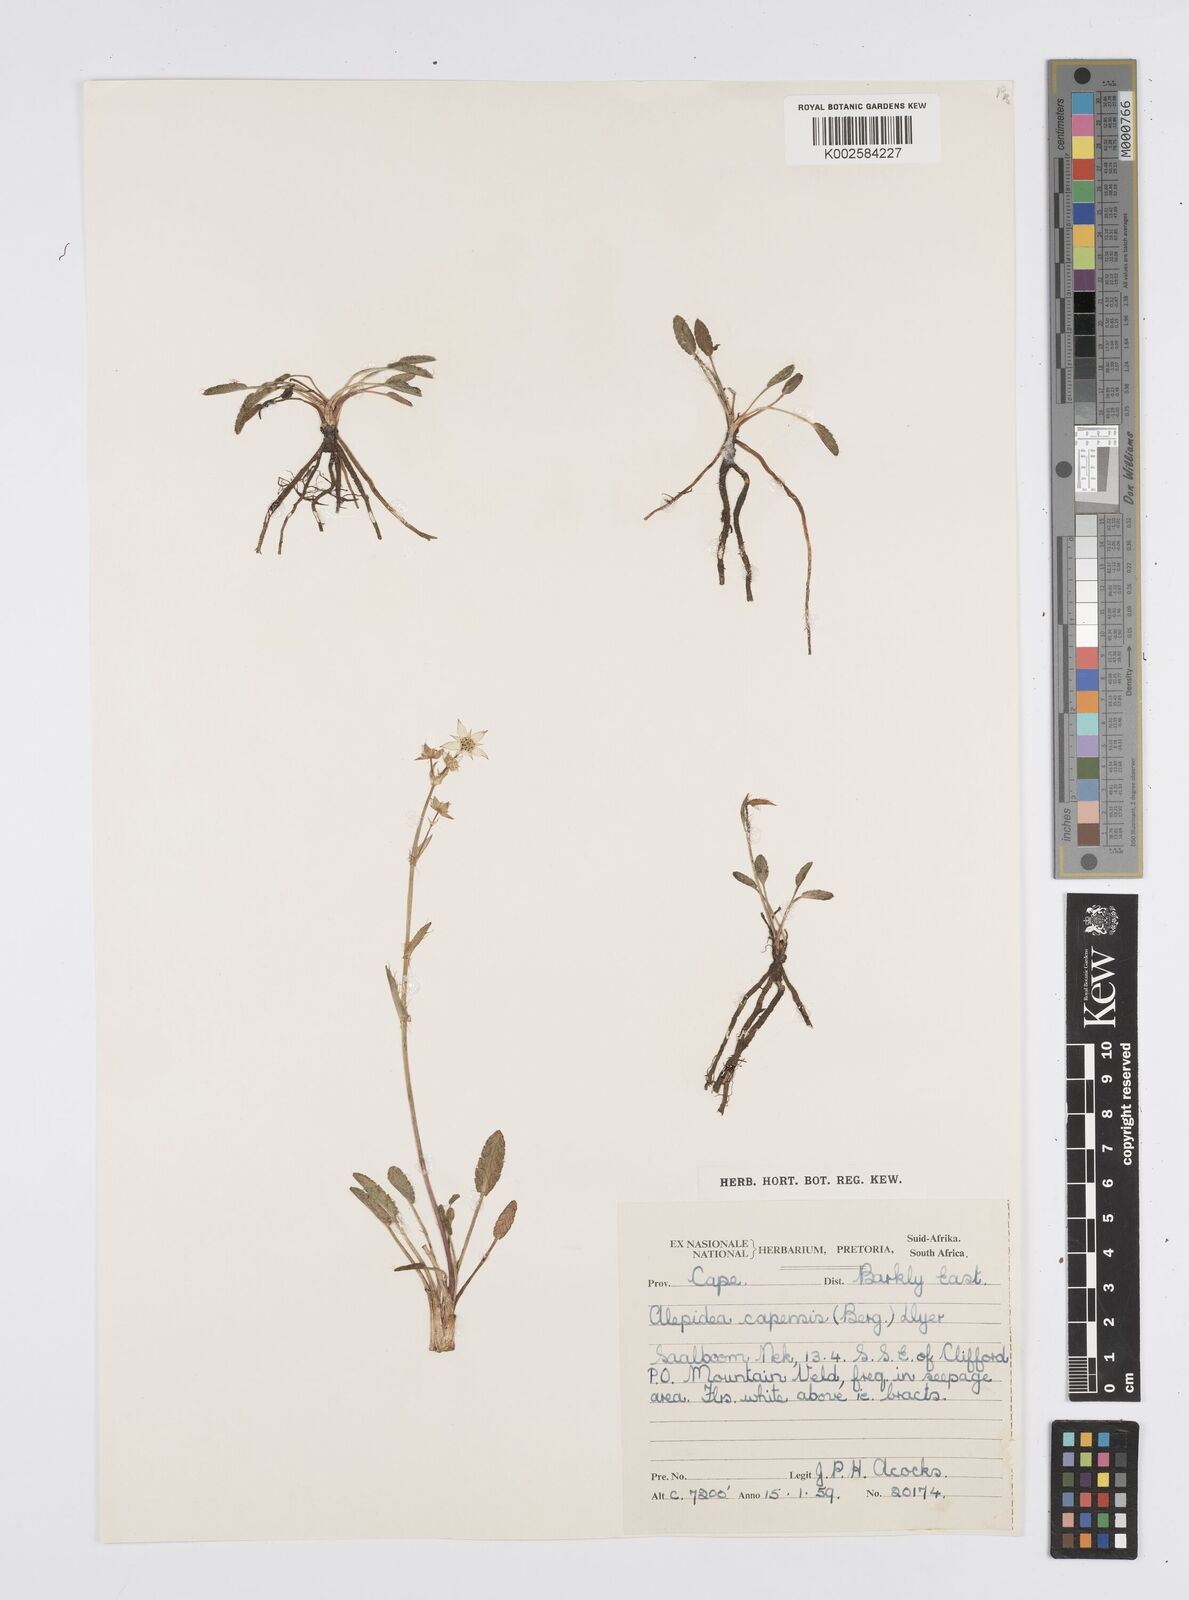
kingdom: Plantae
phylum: Tracheophyta
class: Magnoliopsida
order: Apiales
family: Apiaceae
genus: Alepidea
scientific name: Alepidea pusilla
